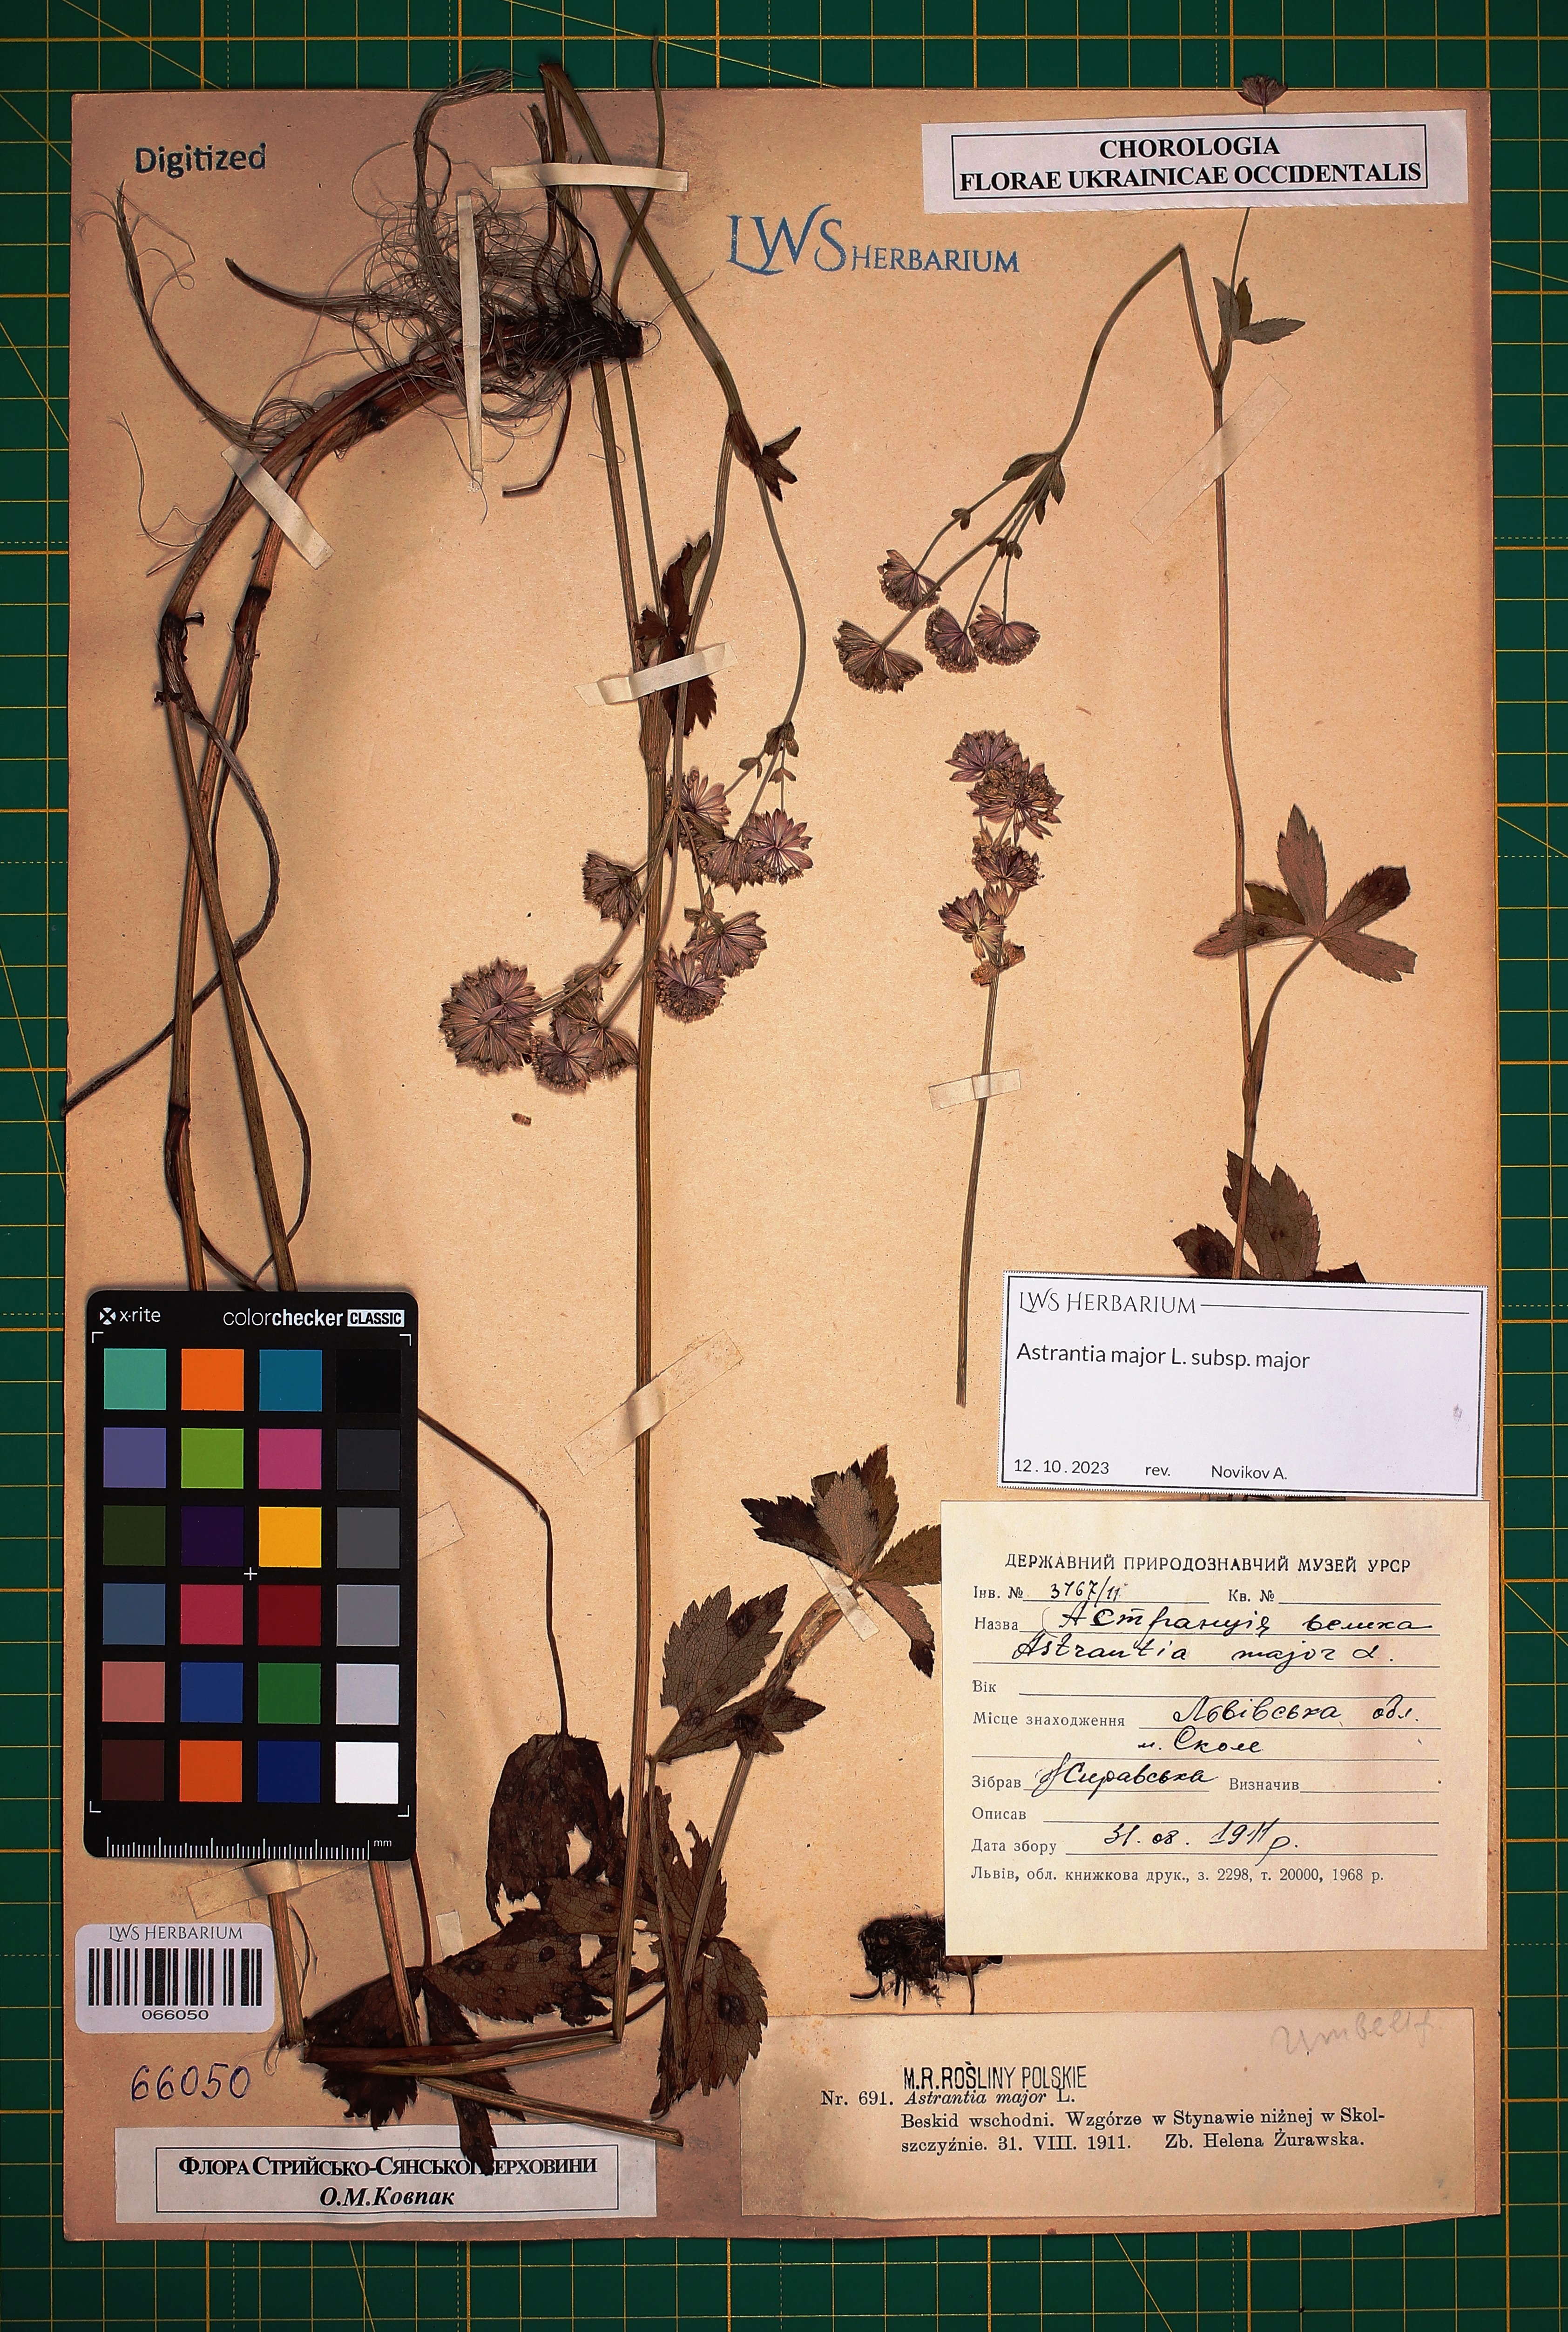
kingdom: Plantae
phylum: Tracheophyta
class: Magnoliopsida
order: Apiales
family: Apiaceae
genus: Astrantia
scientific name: Astrantia major
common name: Greater masterwort
